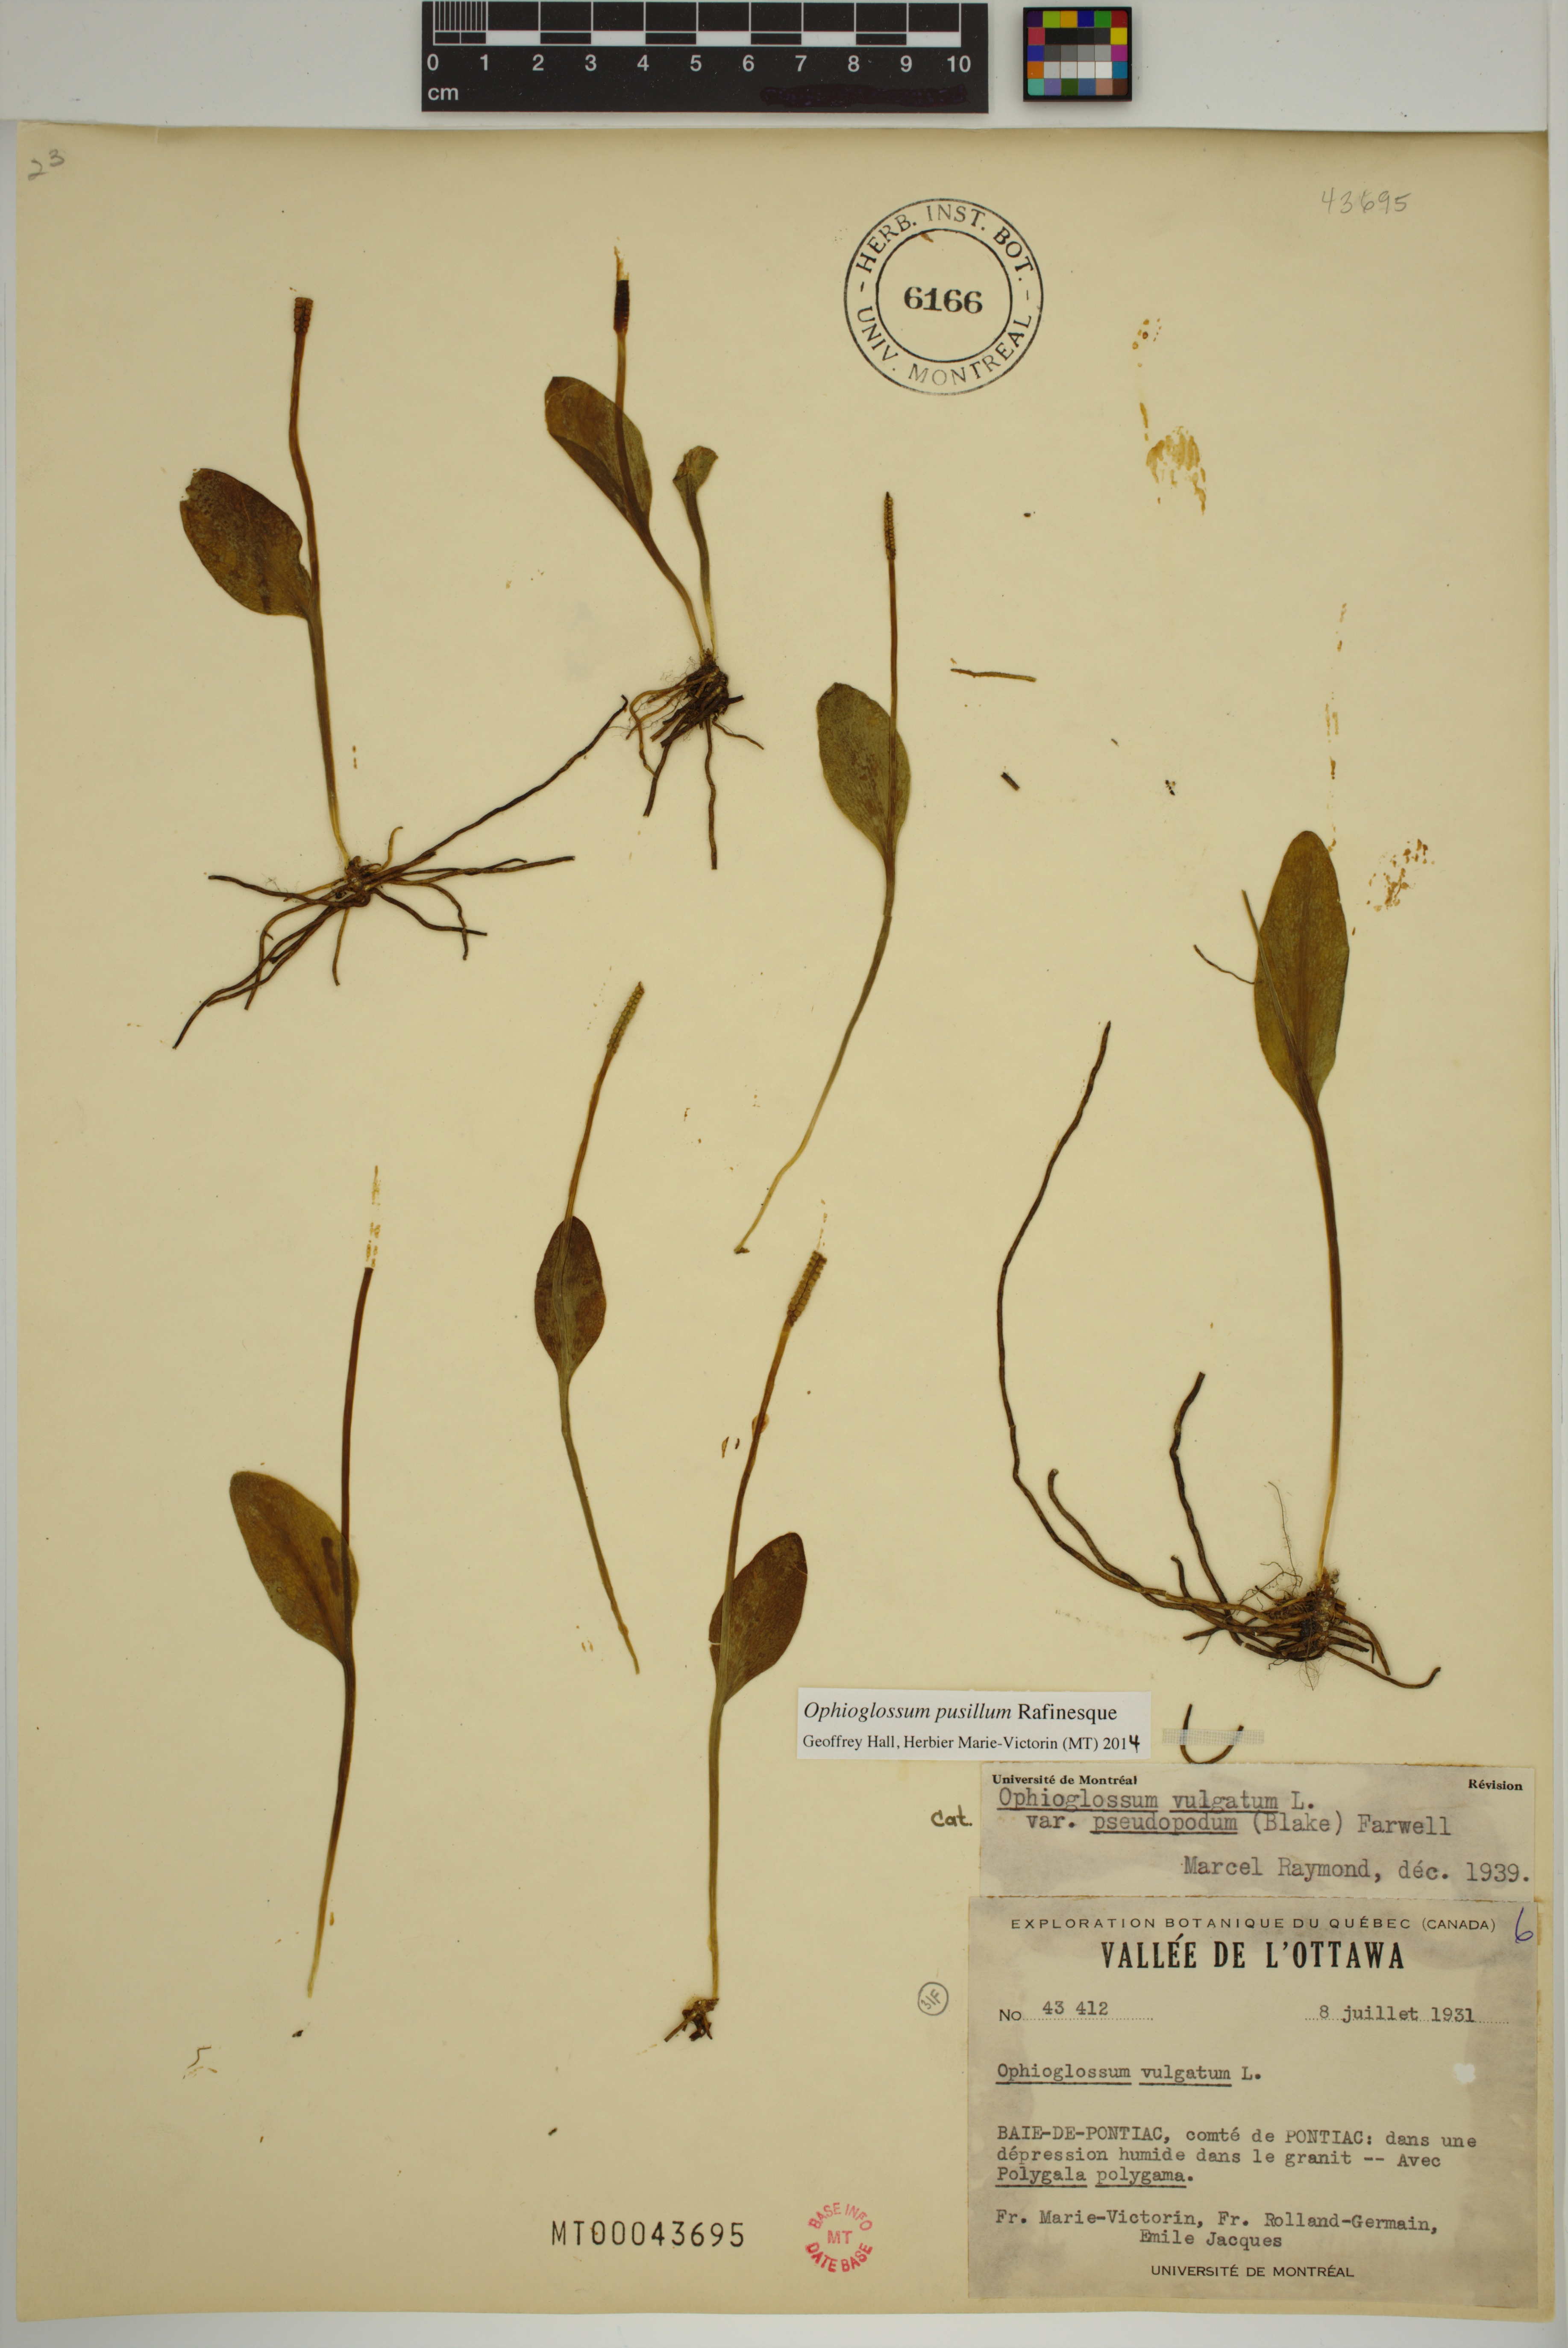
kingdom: Plantae
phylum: Tracheophyta
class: Polypodiopsida
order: Ophioglossales
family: Ophioglossaceae
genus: Ophioglossum
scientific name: Ophioglossum pusillum
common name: Northern adder's-tongue
